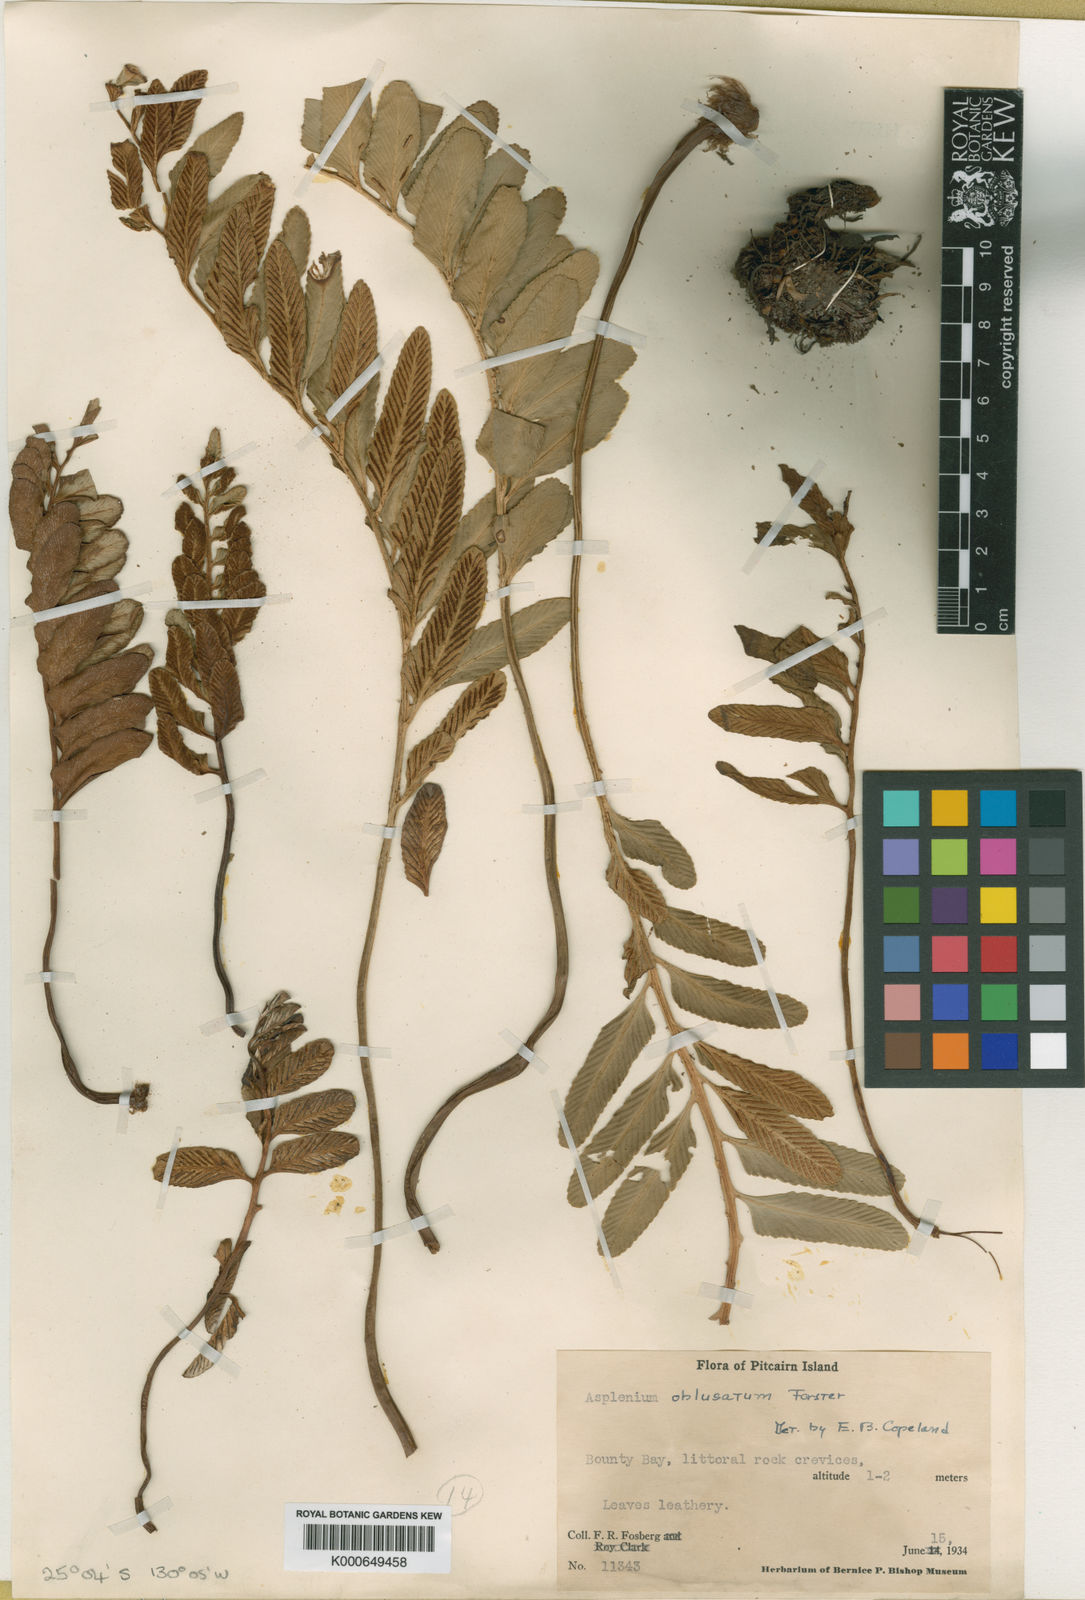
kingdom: Plantae
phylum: Tracheophyta
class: Polypodiopsida
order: Polypodiales
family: Aspleniaceae
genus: Asplenium
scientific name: Asplenium obtusatum
